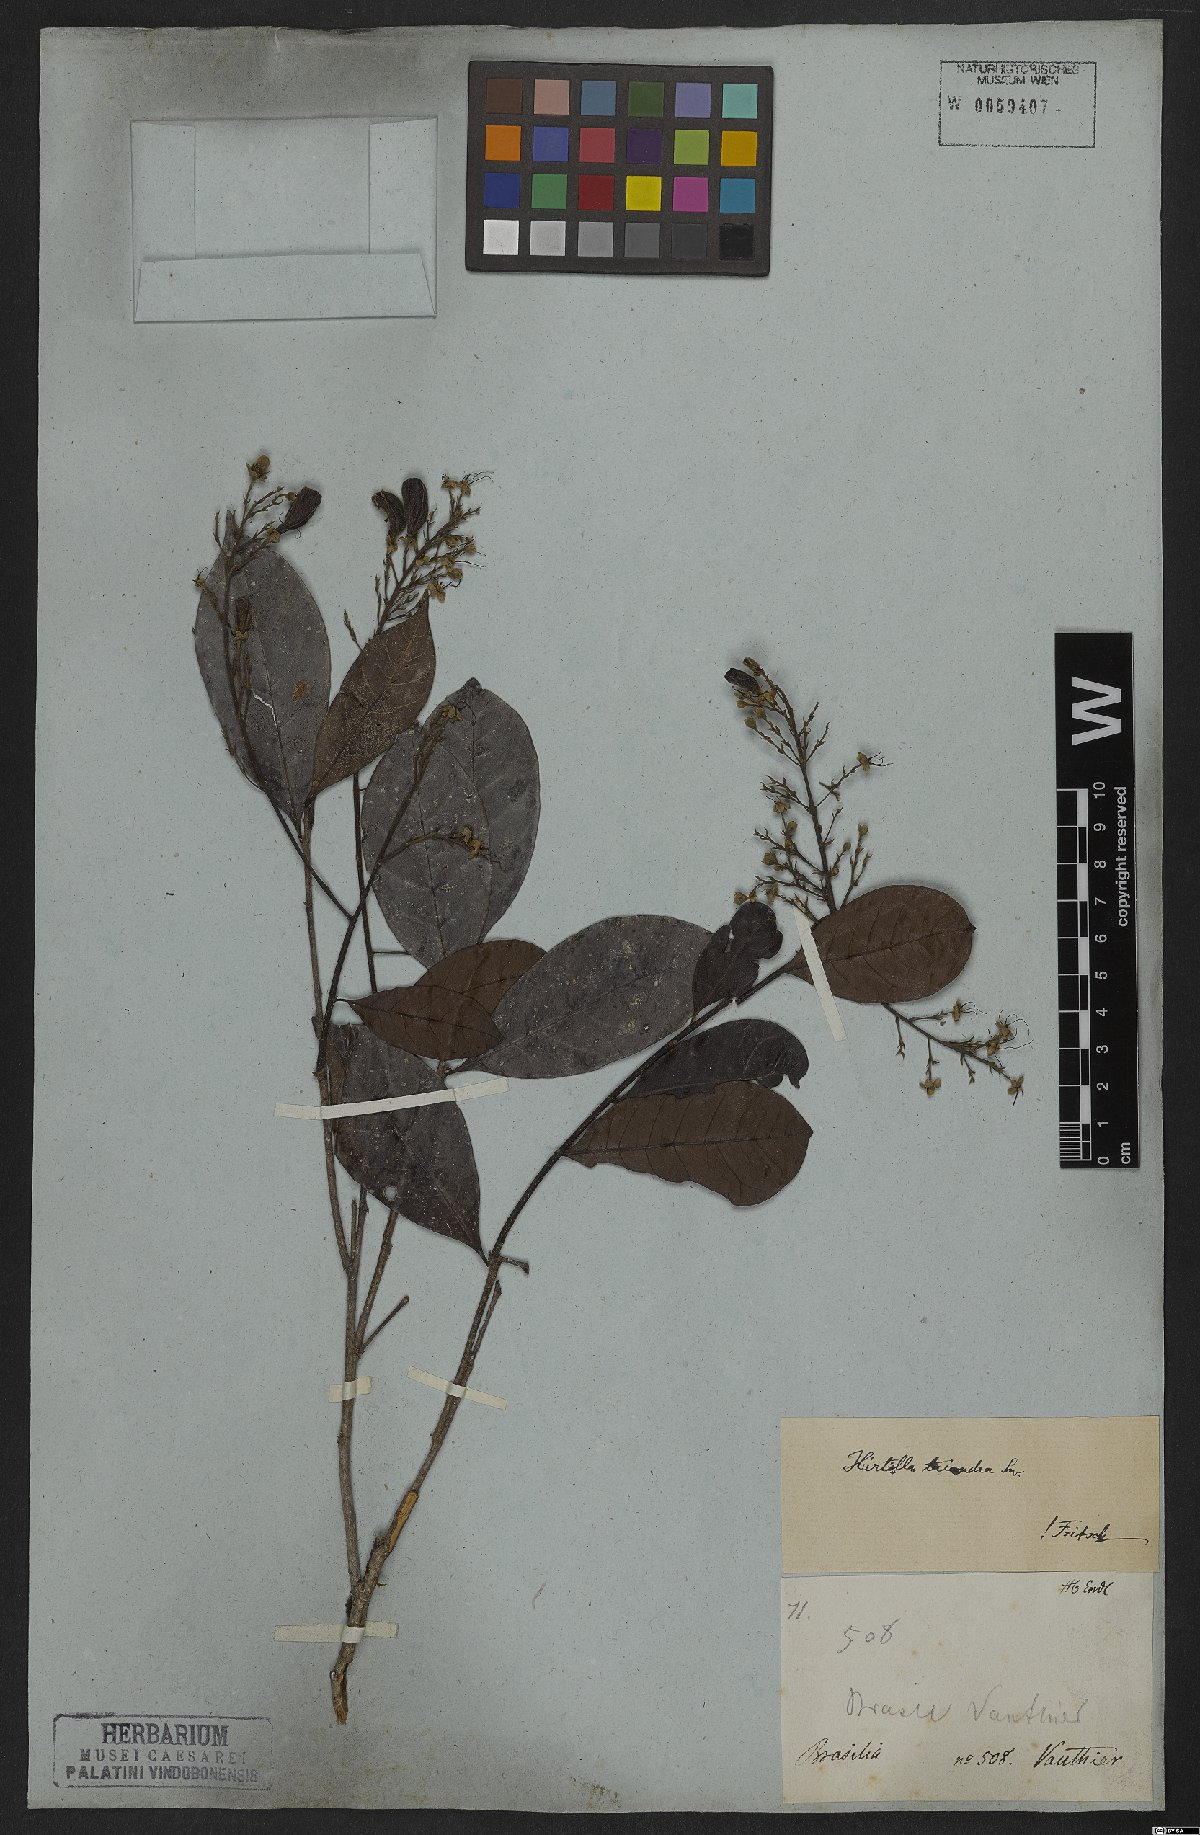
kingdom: Plantae
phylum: Tracheophyta
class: Magnoliopsida
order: Malpighiales
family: Chrysobalanaceae
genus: Hirtella
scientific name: Hirtella triandra
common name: Hairy plum
